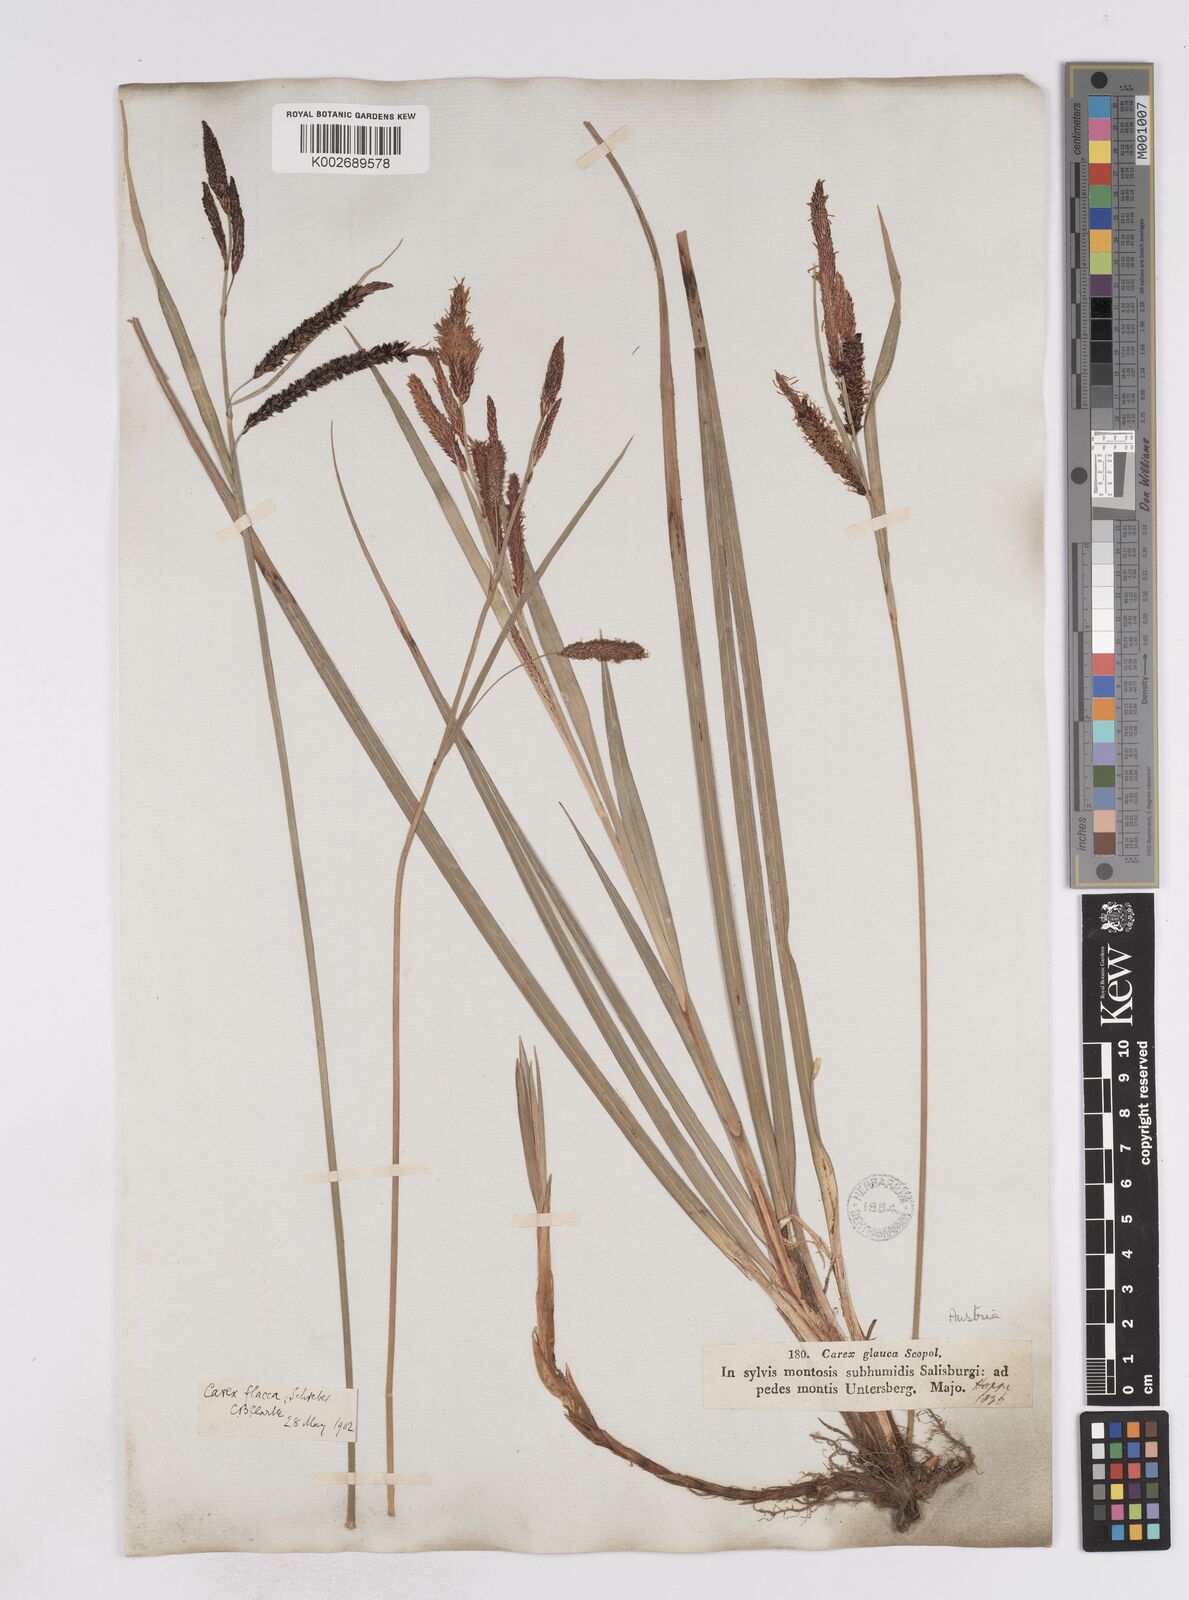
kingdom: Plantae
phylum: Tracheophyta
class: Liliopsida
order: Poales
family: Cyperaceae
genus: Carex
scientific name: Carex flacca
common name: Glaucous sedge
